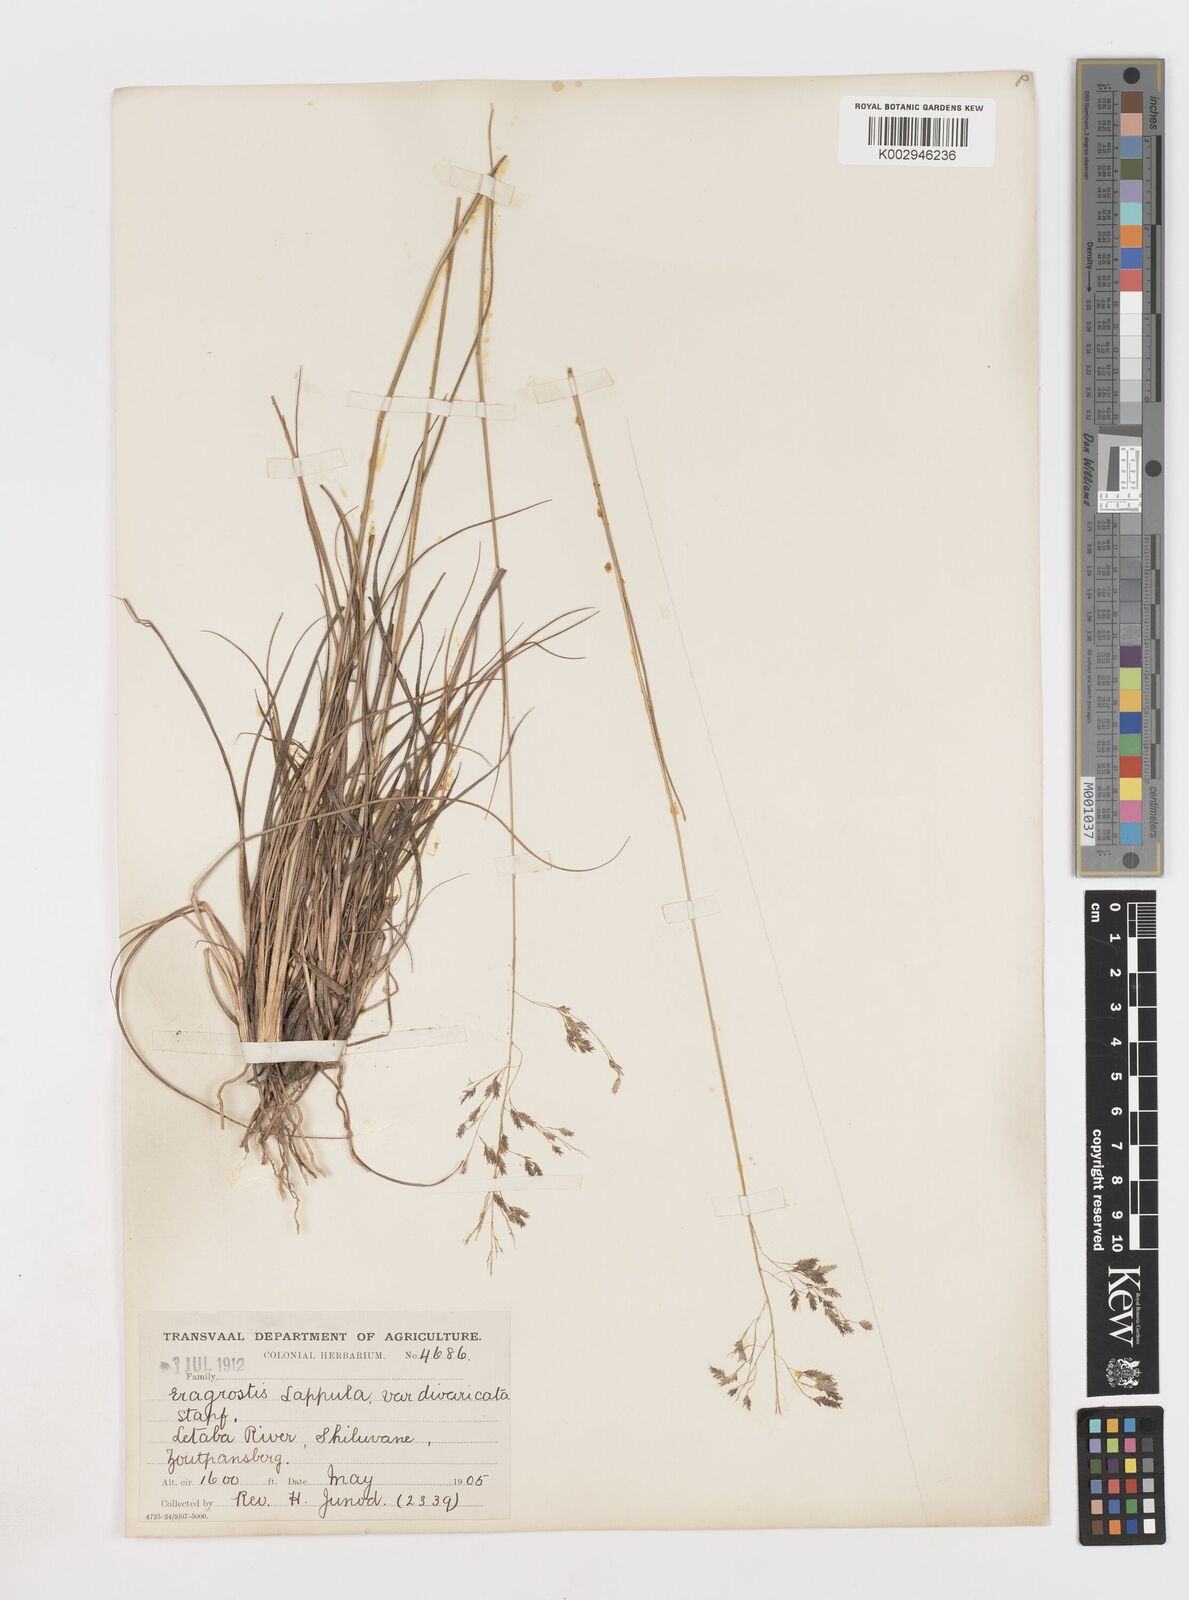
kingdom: Plantae
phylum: Tracheophyta
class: Liliopsida
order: Poales
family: Poaceae
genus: Eragrostis
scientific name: Eragrostis lappula
